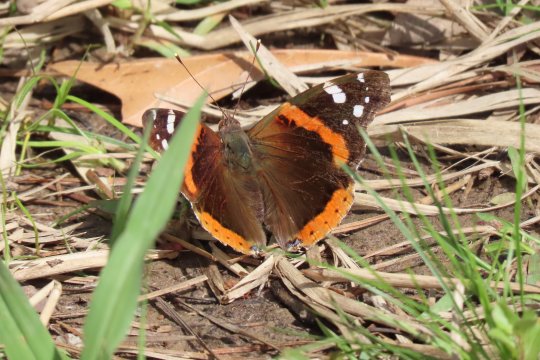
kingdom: Animalia
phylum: Arthropoda
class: Insecta
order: Lepidoptera
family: Nymphalidae
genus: Vanessa
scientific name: Vanessa atalanta
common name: Red Admiral
